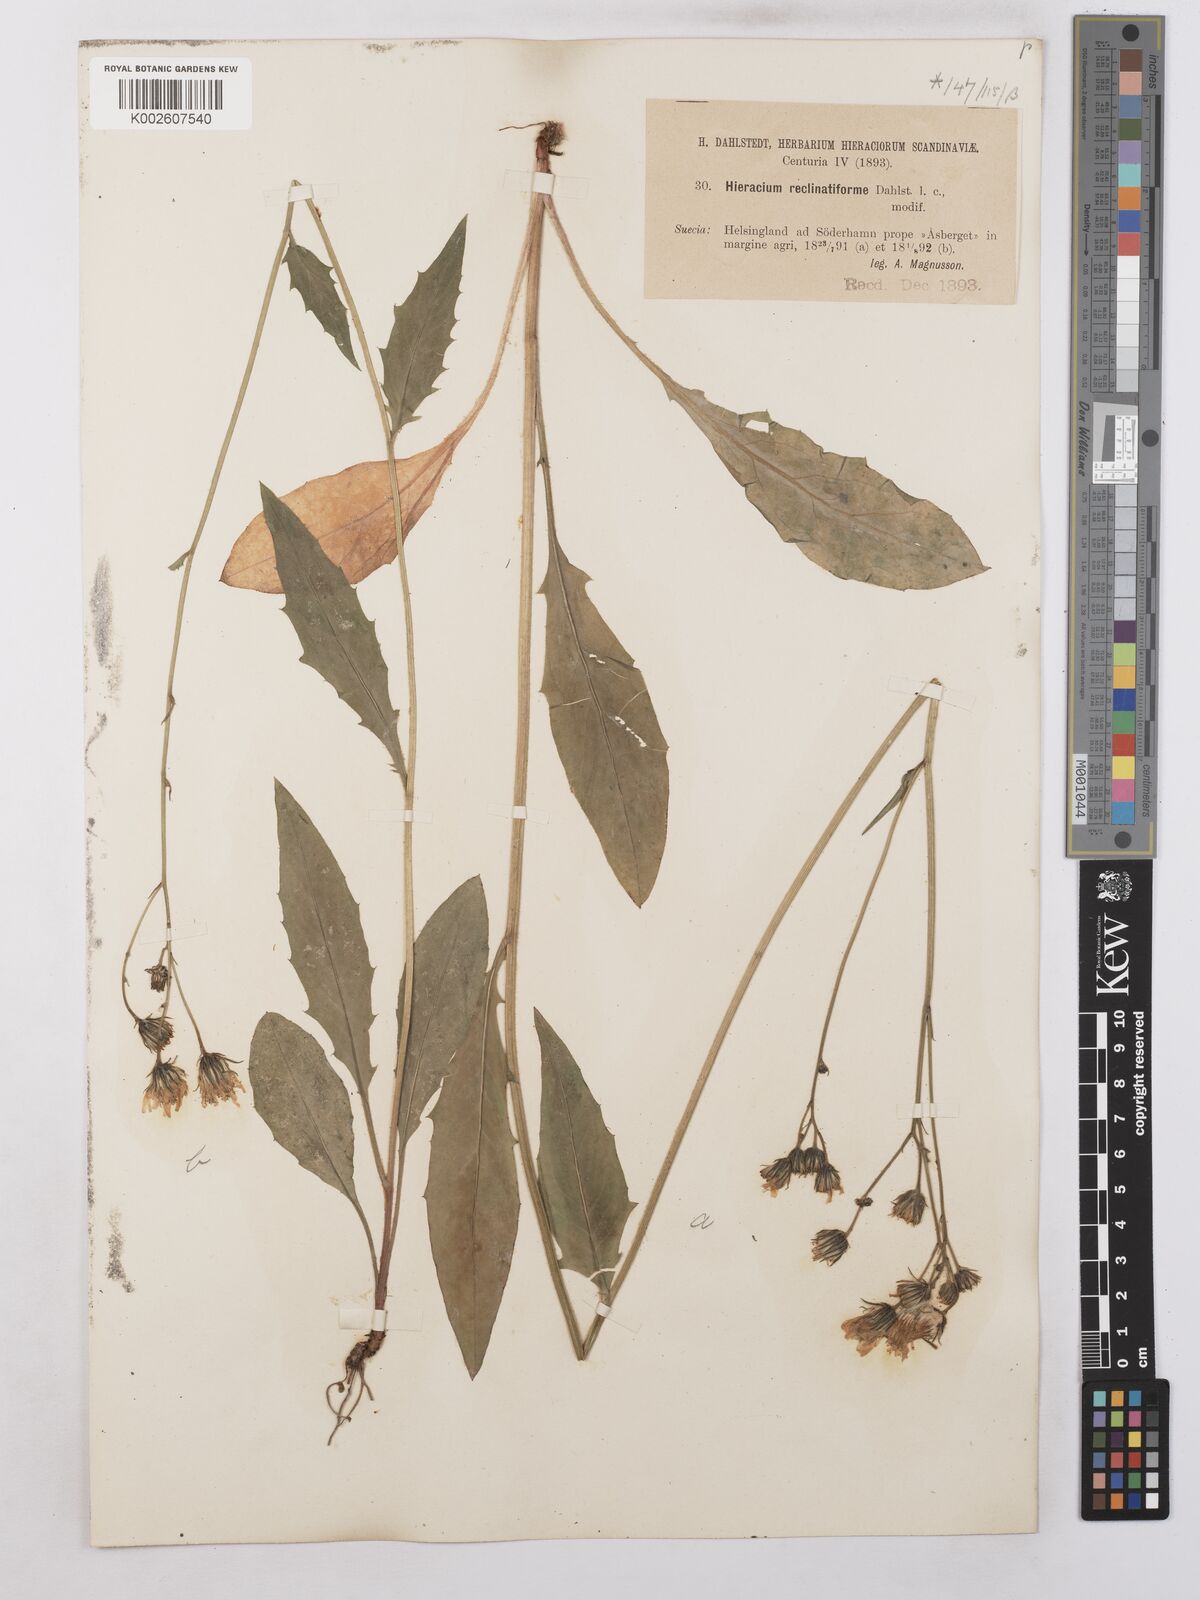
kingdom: Plantae
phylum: Tracheophyta
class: Magnoliopsida
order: Asterales
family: Asteraceae
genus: Hieracium
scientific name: Hieracium caesium
